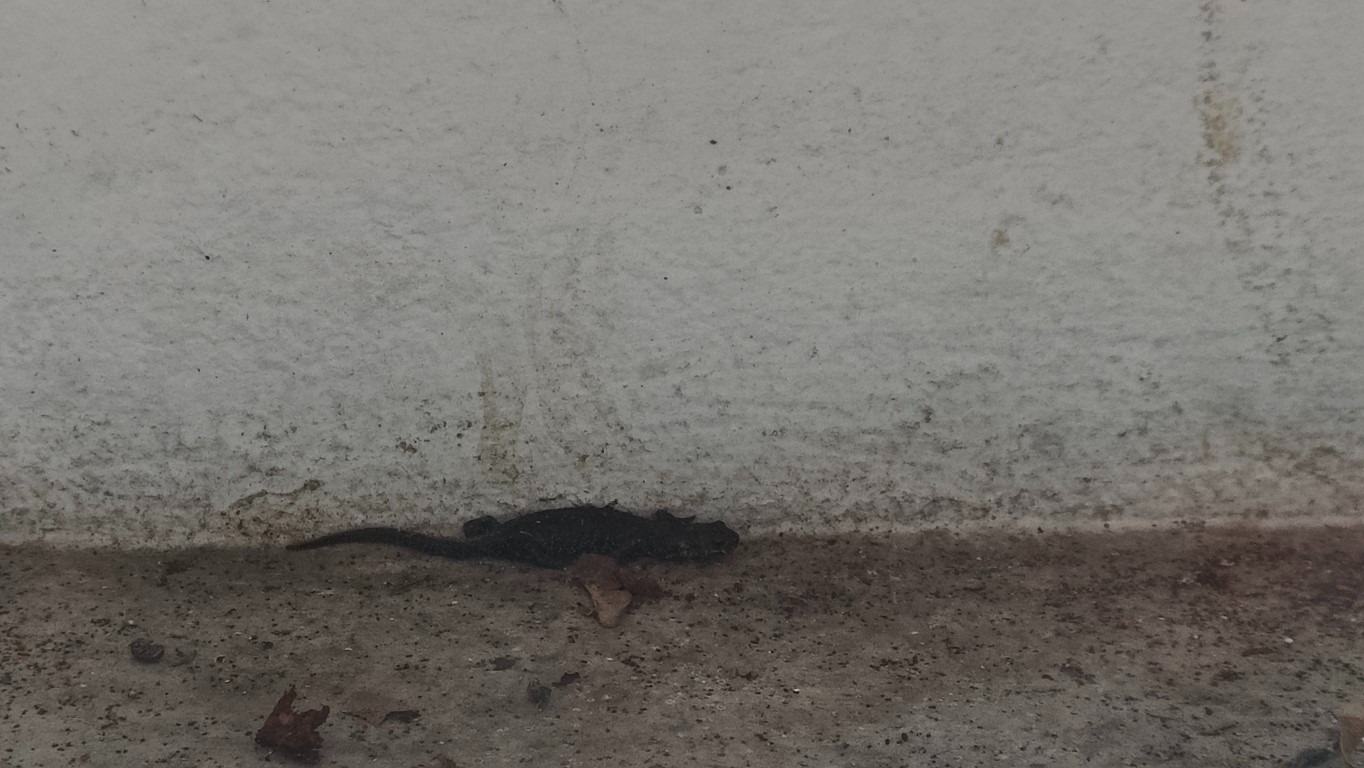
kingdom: Animalia
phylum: Chordata
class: Amphibia
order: Caudata
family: Salamandridae
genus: Triturus
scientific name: Triturus cristatus
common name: Stor vandsalamander
